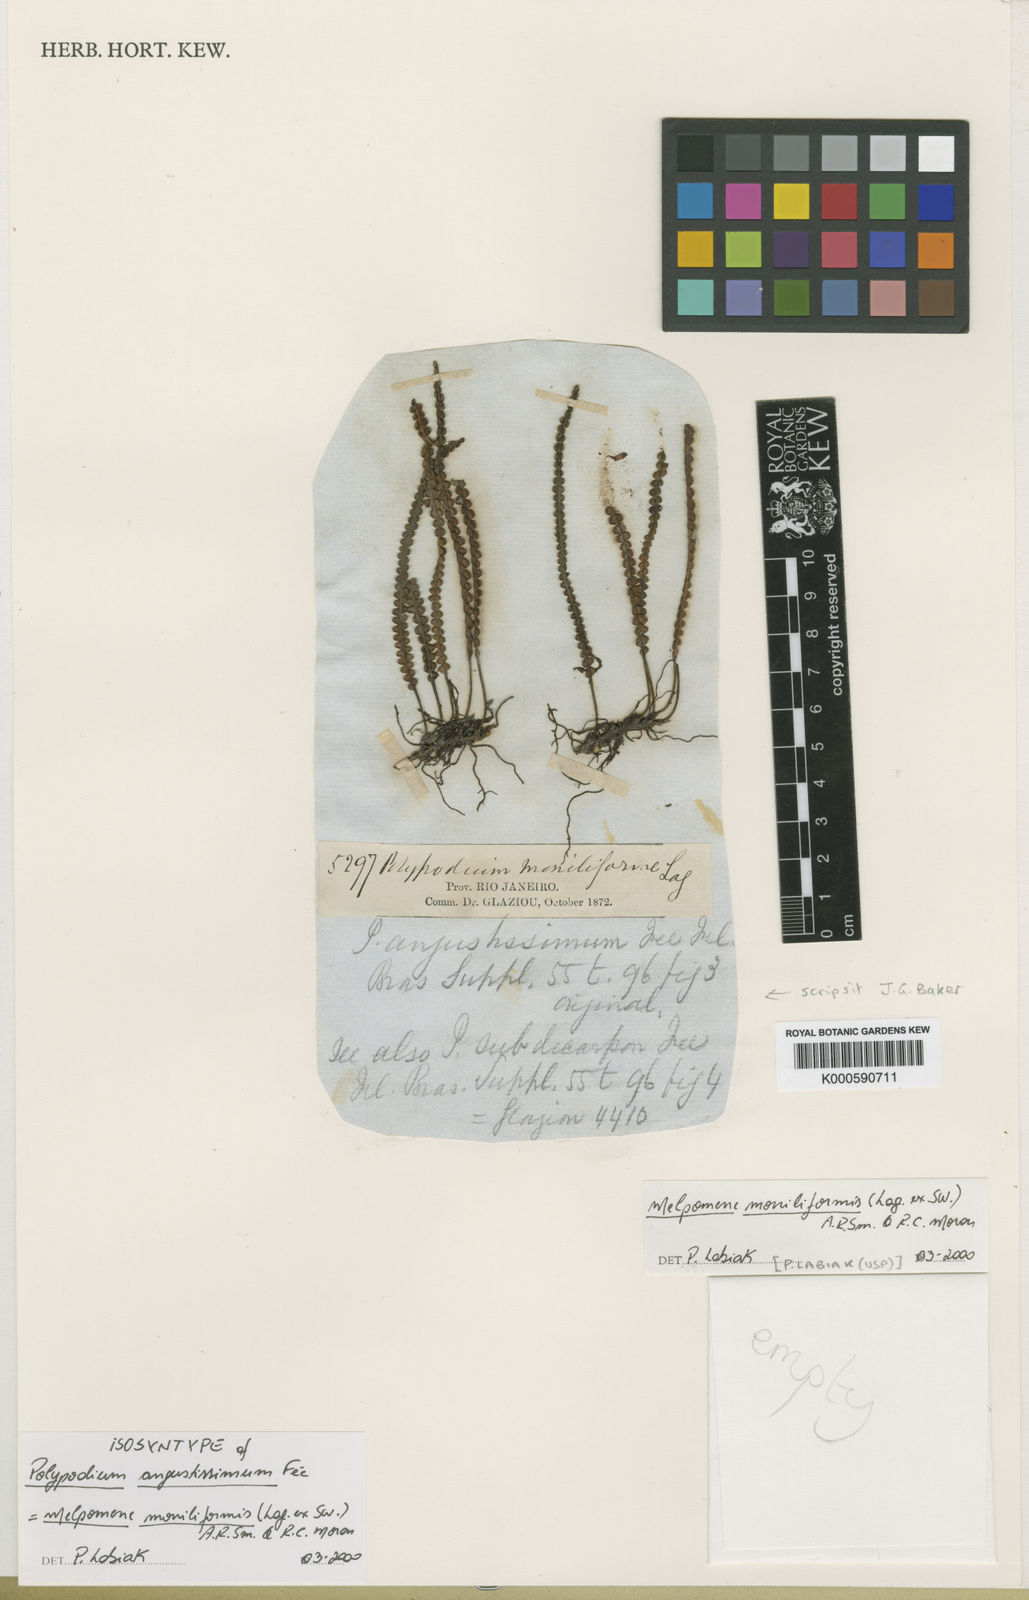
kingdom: Plantae
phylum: Tracheophyta
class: Polypodiopsida
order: Polypodiales
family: Polypodiaceae
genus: Melpomene
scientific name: Melpomene moniliformis
